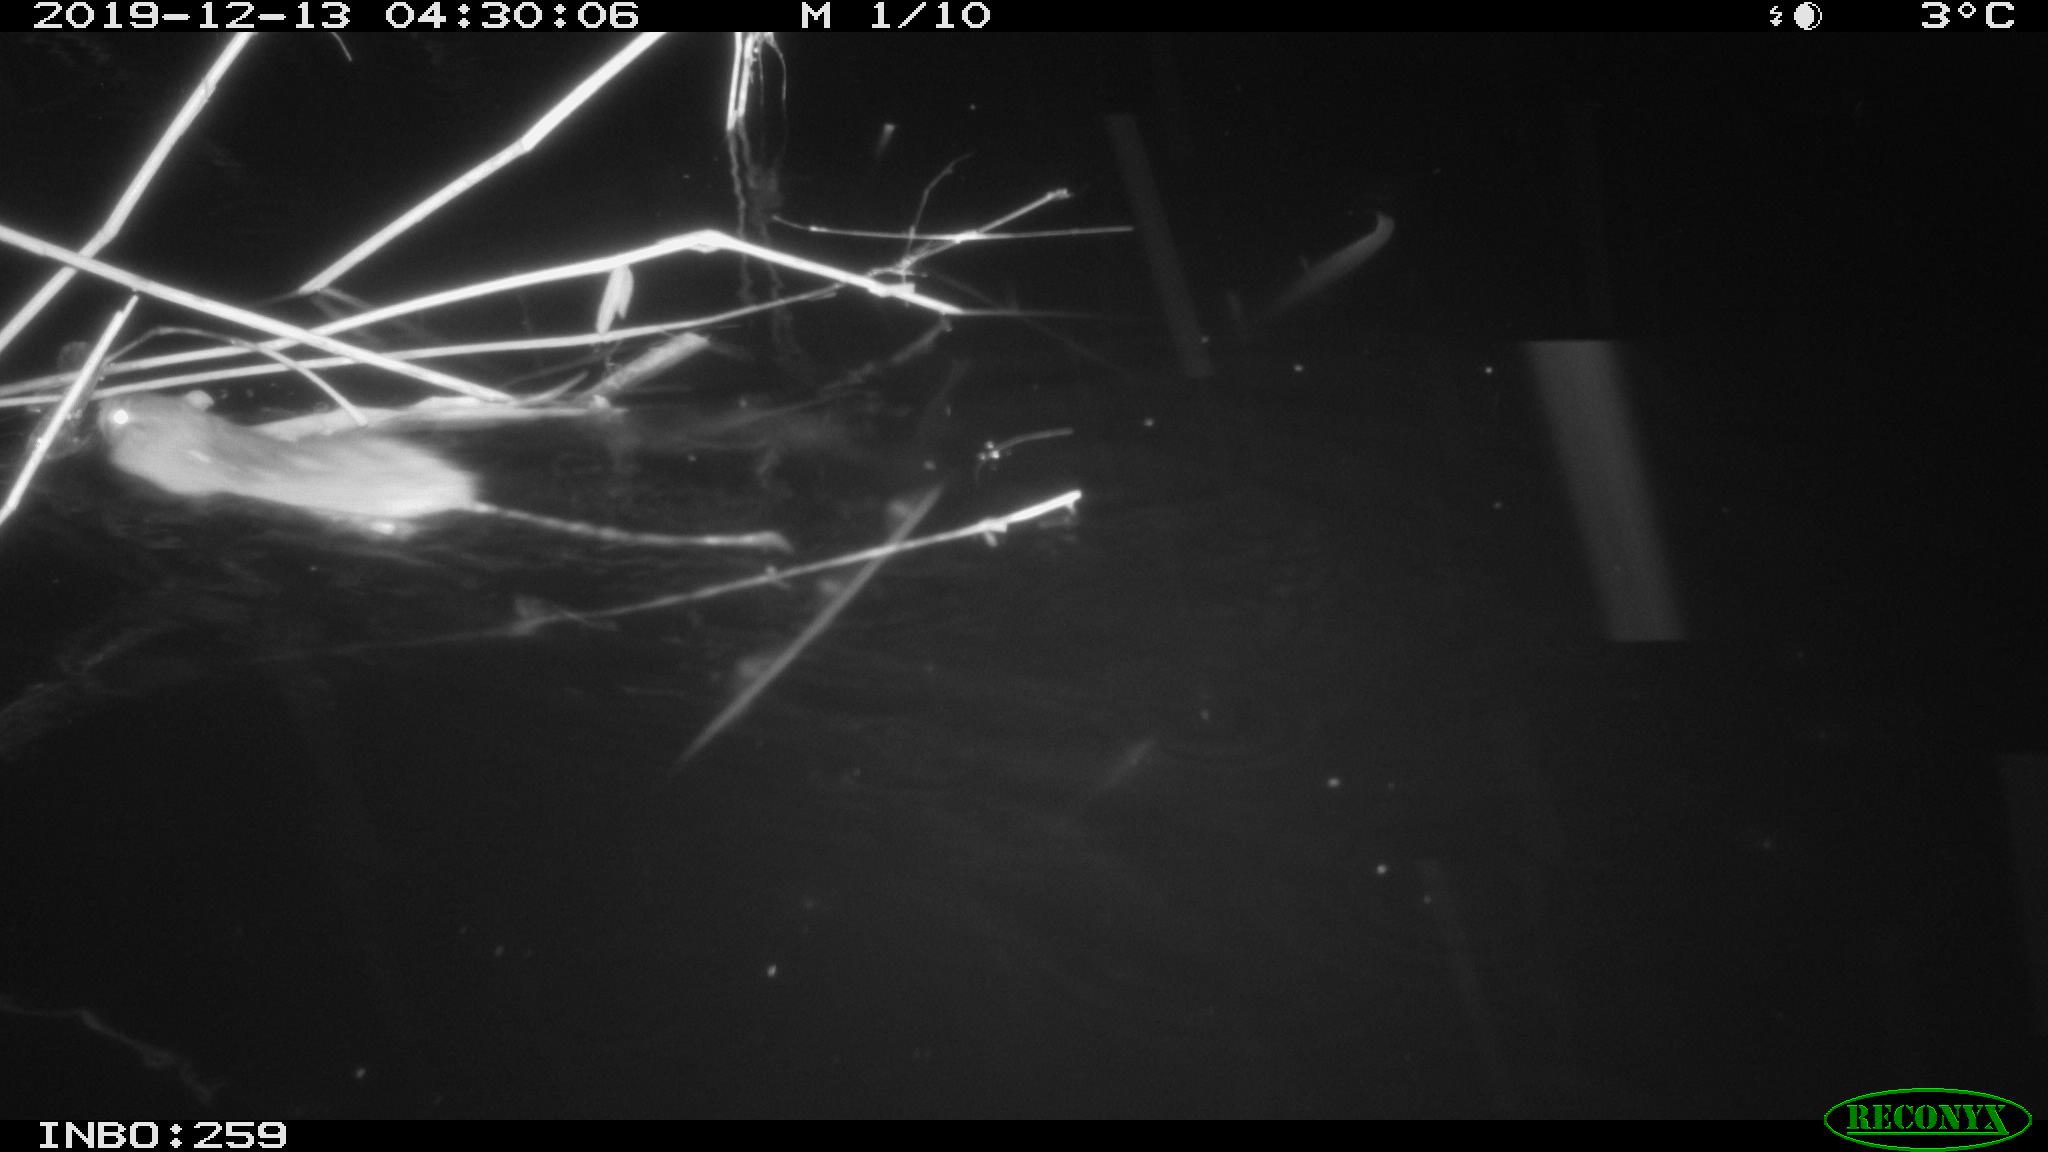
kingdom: Animalia
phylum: Chordata
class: Mammalia
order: Rodentia
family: Muridae
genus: Rattus
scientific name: Rattus norvegicus
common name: Brown rat
